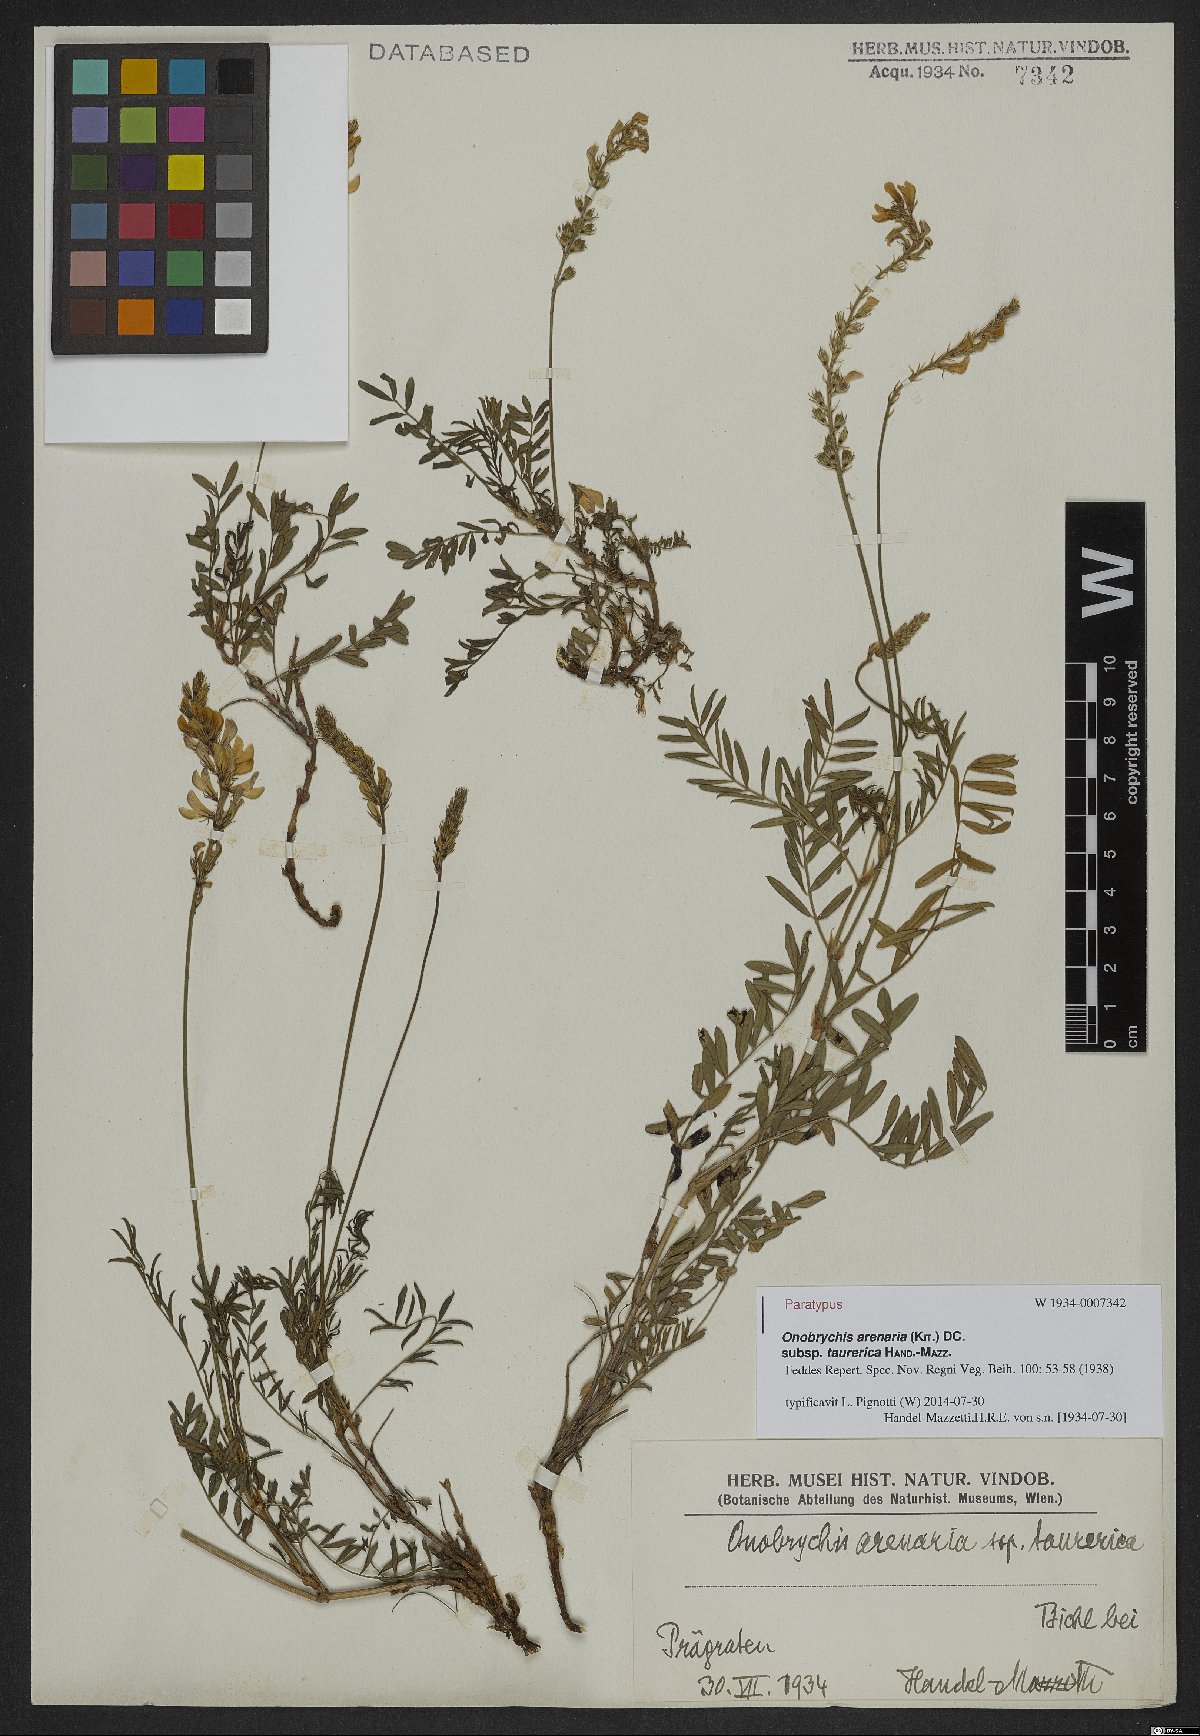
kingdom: Plantae
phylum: Tracheophyta
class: Magnoliopsida
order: Fabales
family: Fabaceae
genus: Onobrychis
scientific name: Onobrychis arenaria
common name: Sand esparcet
